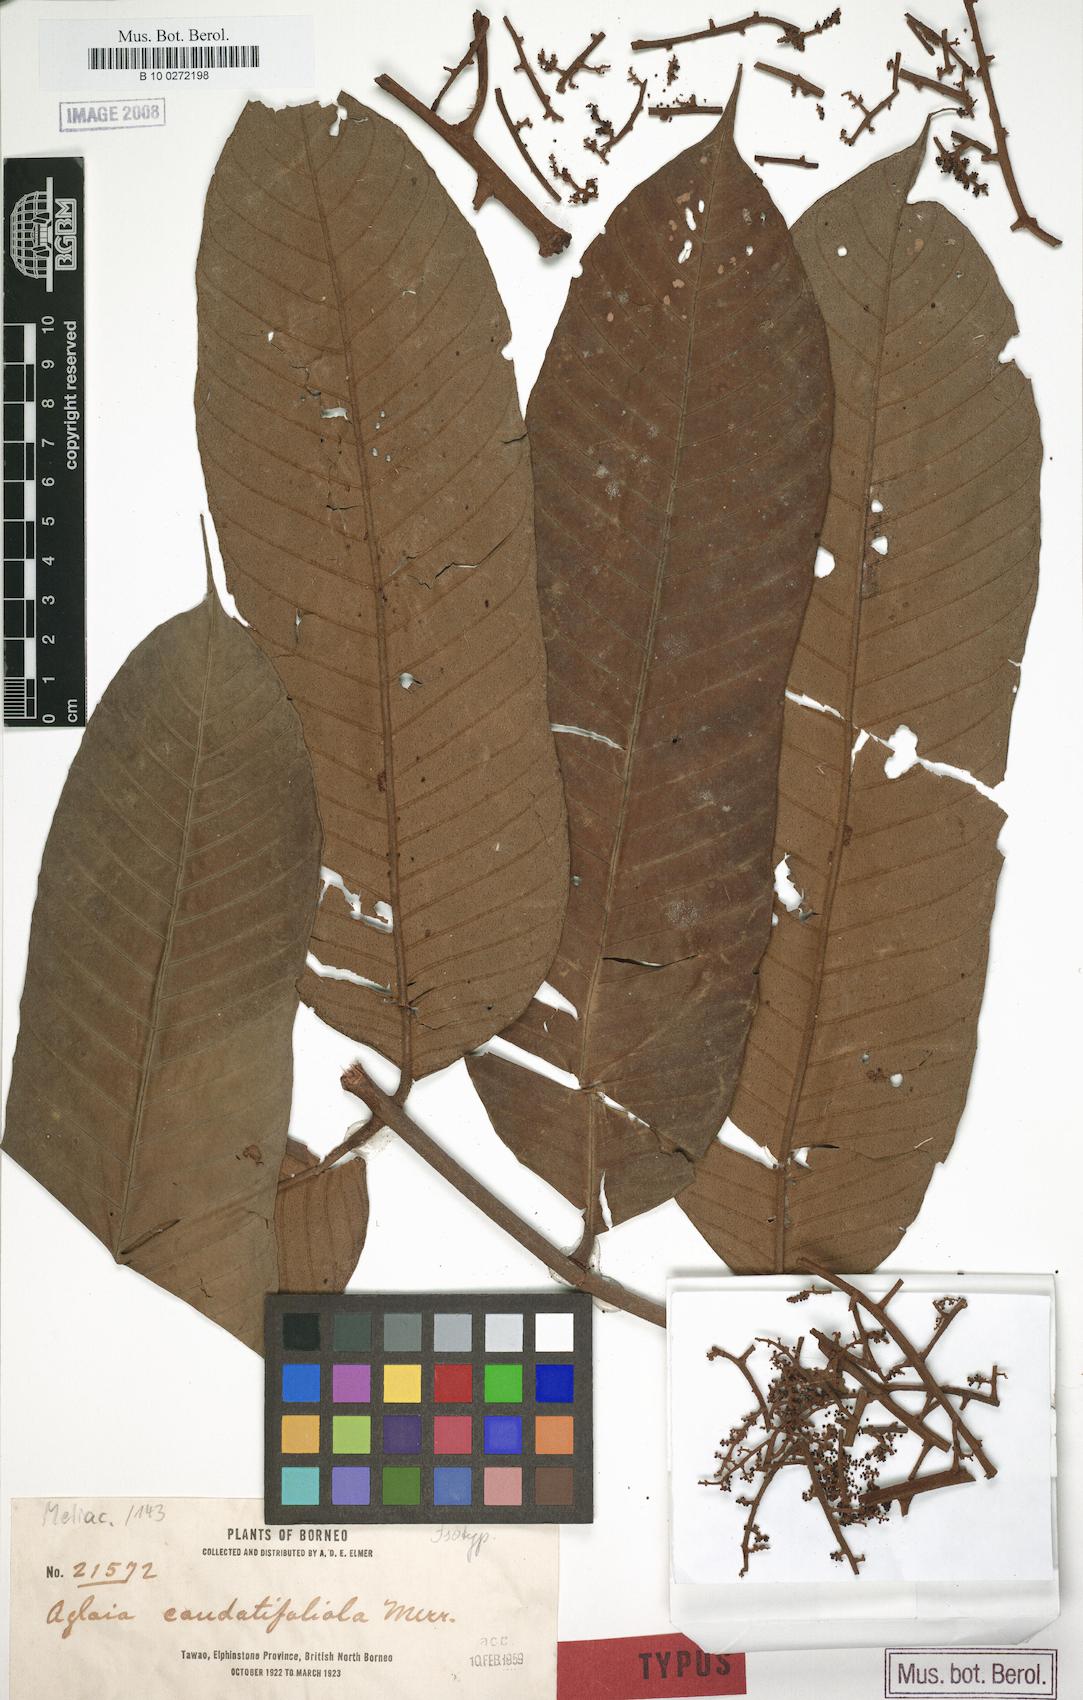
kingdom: Plantae
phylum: Tracheophyta
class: Magnoliopsida
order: Sapindales
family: Meliaceae
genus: Aglaia
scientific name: Aglaia caudatifoliata
